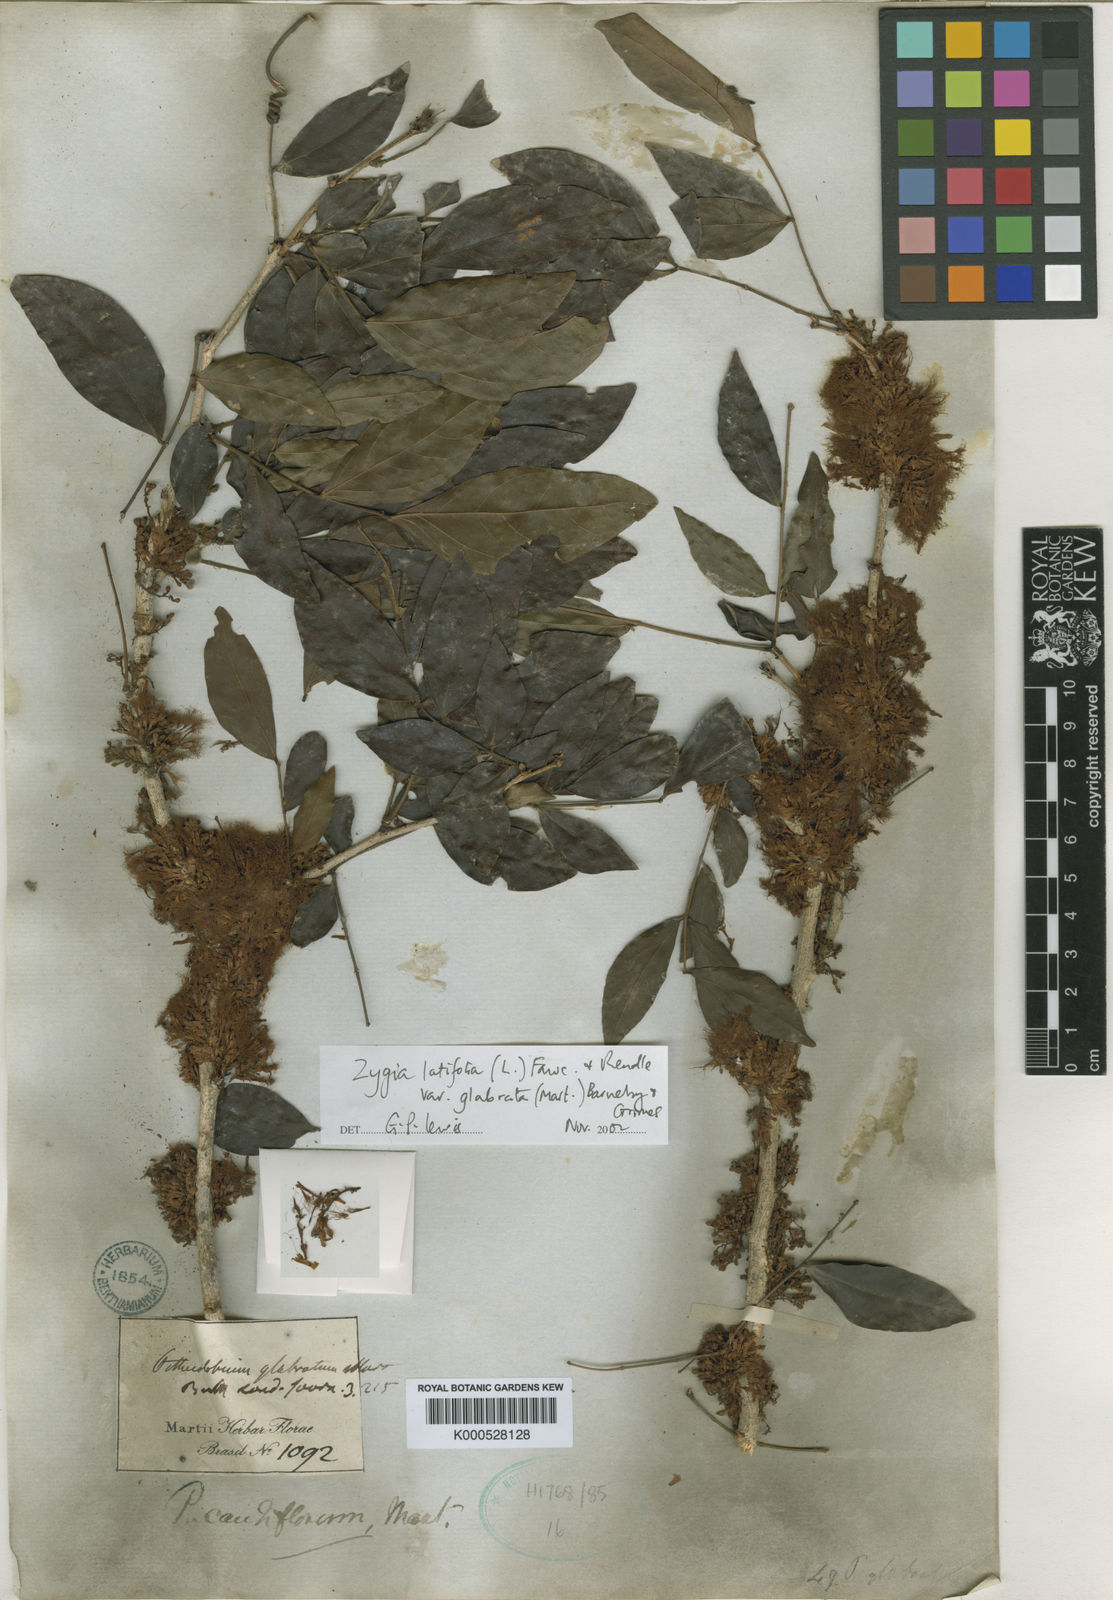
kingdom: Plantae
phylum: Tracheophyta
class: Magnoliopsida
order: Fabales
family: Fabaceae
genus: Zygia
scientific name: Zygia latifolia
